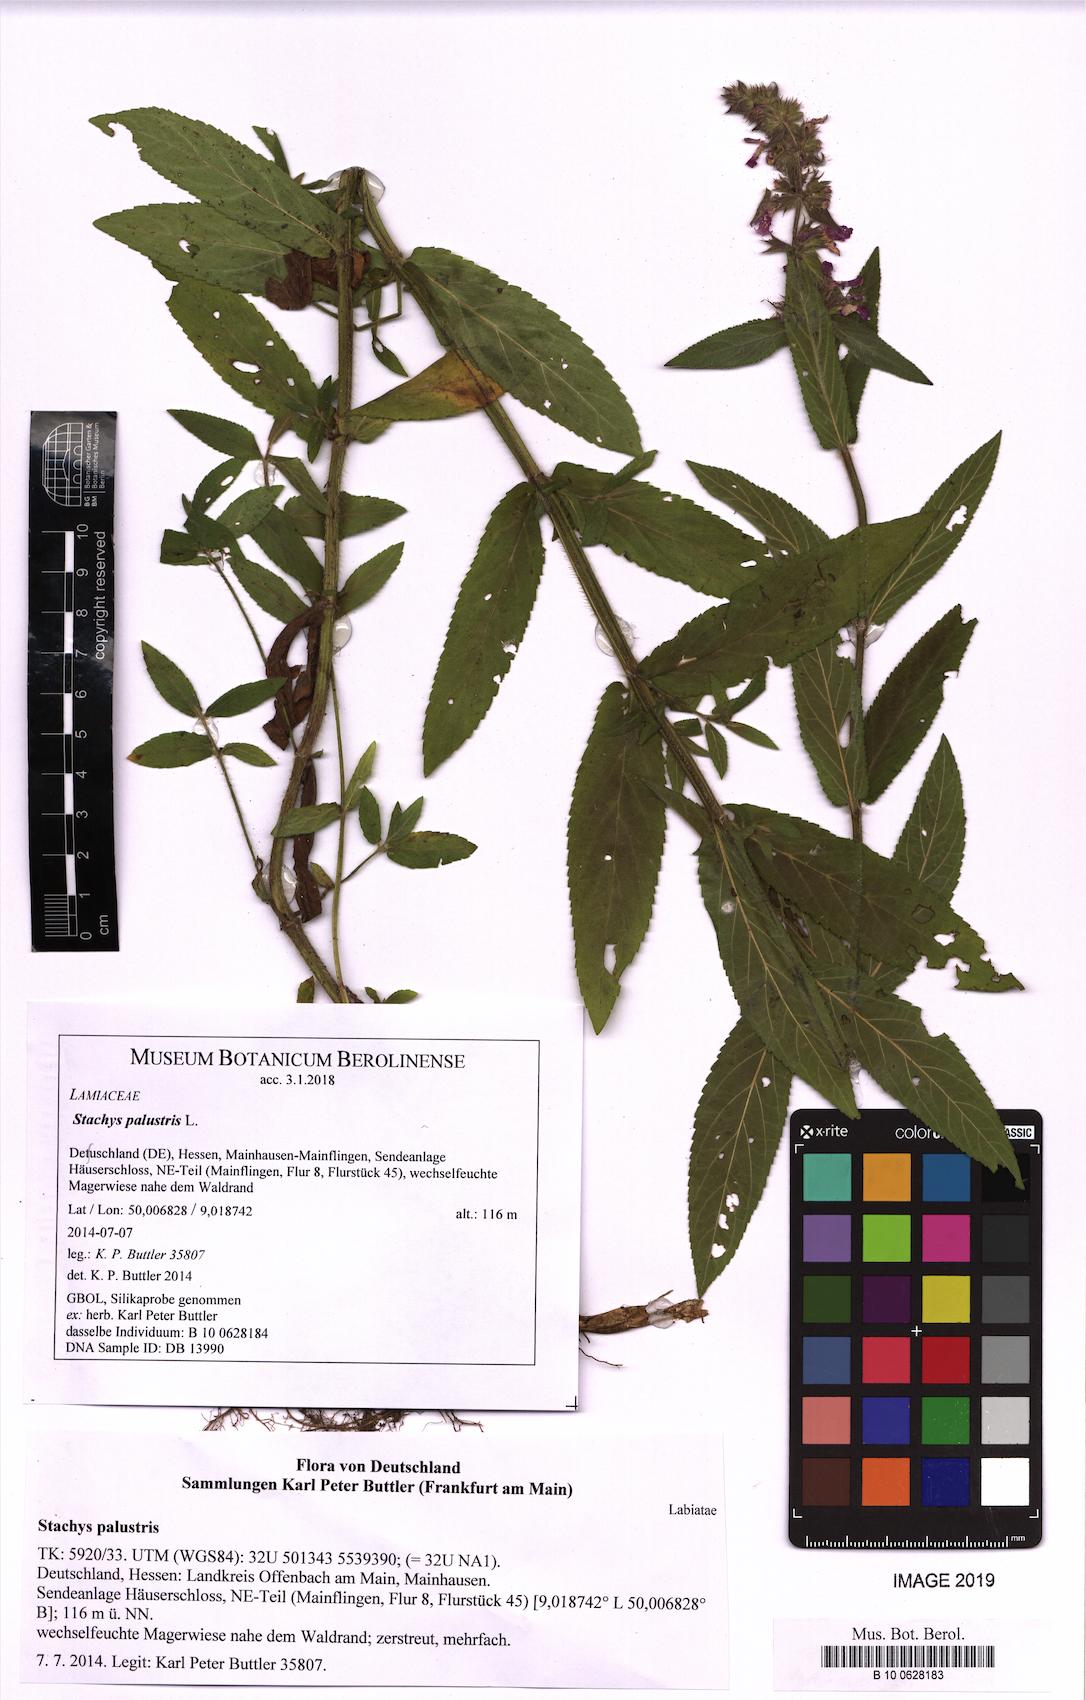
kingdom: Plantae
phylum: Tracheophyta
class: Magnoliopsida
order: Lamiales
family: Lamiaceae
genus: Stachys
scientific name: Stachys palustris
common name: Marsh woundwort
